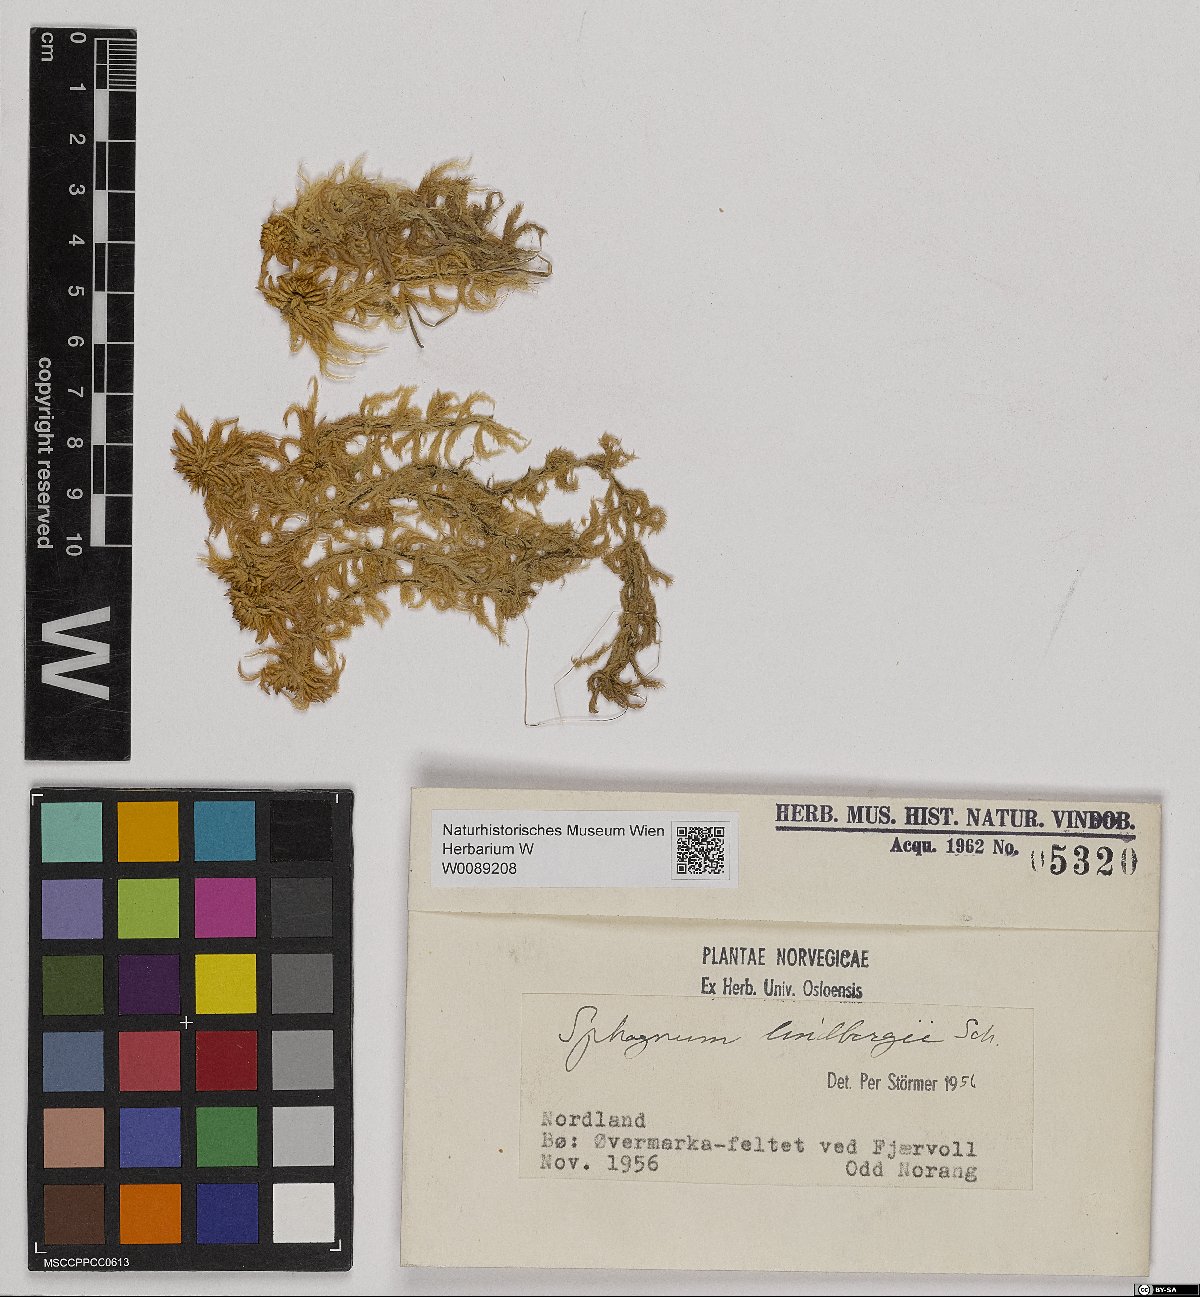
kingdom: Plantae
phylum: Bryophyta
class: Sphagnopsida
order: Sphagnales
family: Sphagnaceae
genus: Sphagnum
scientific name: Sphagnum lindbergii
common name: Lindberg's peat moss
